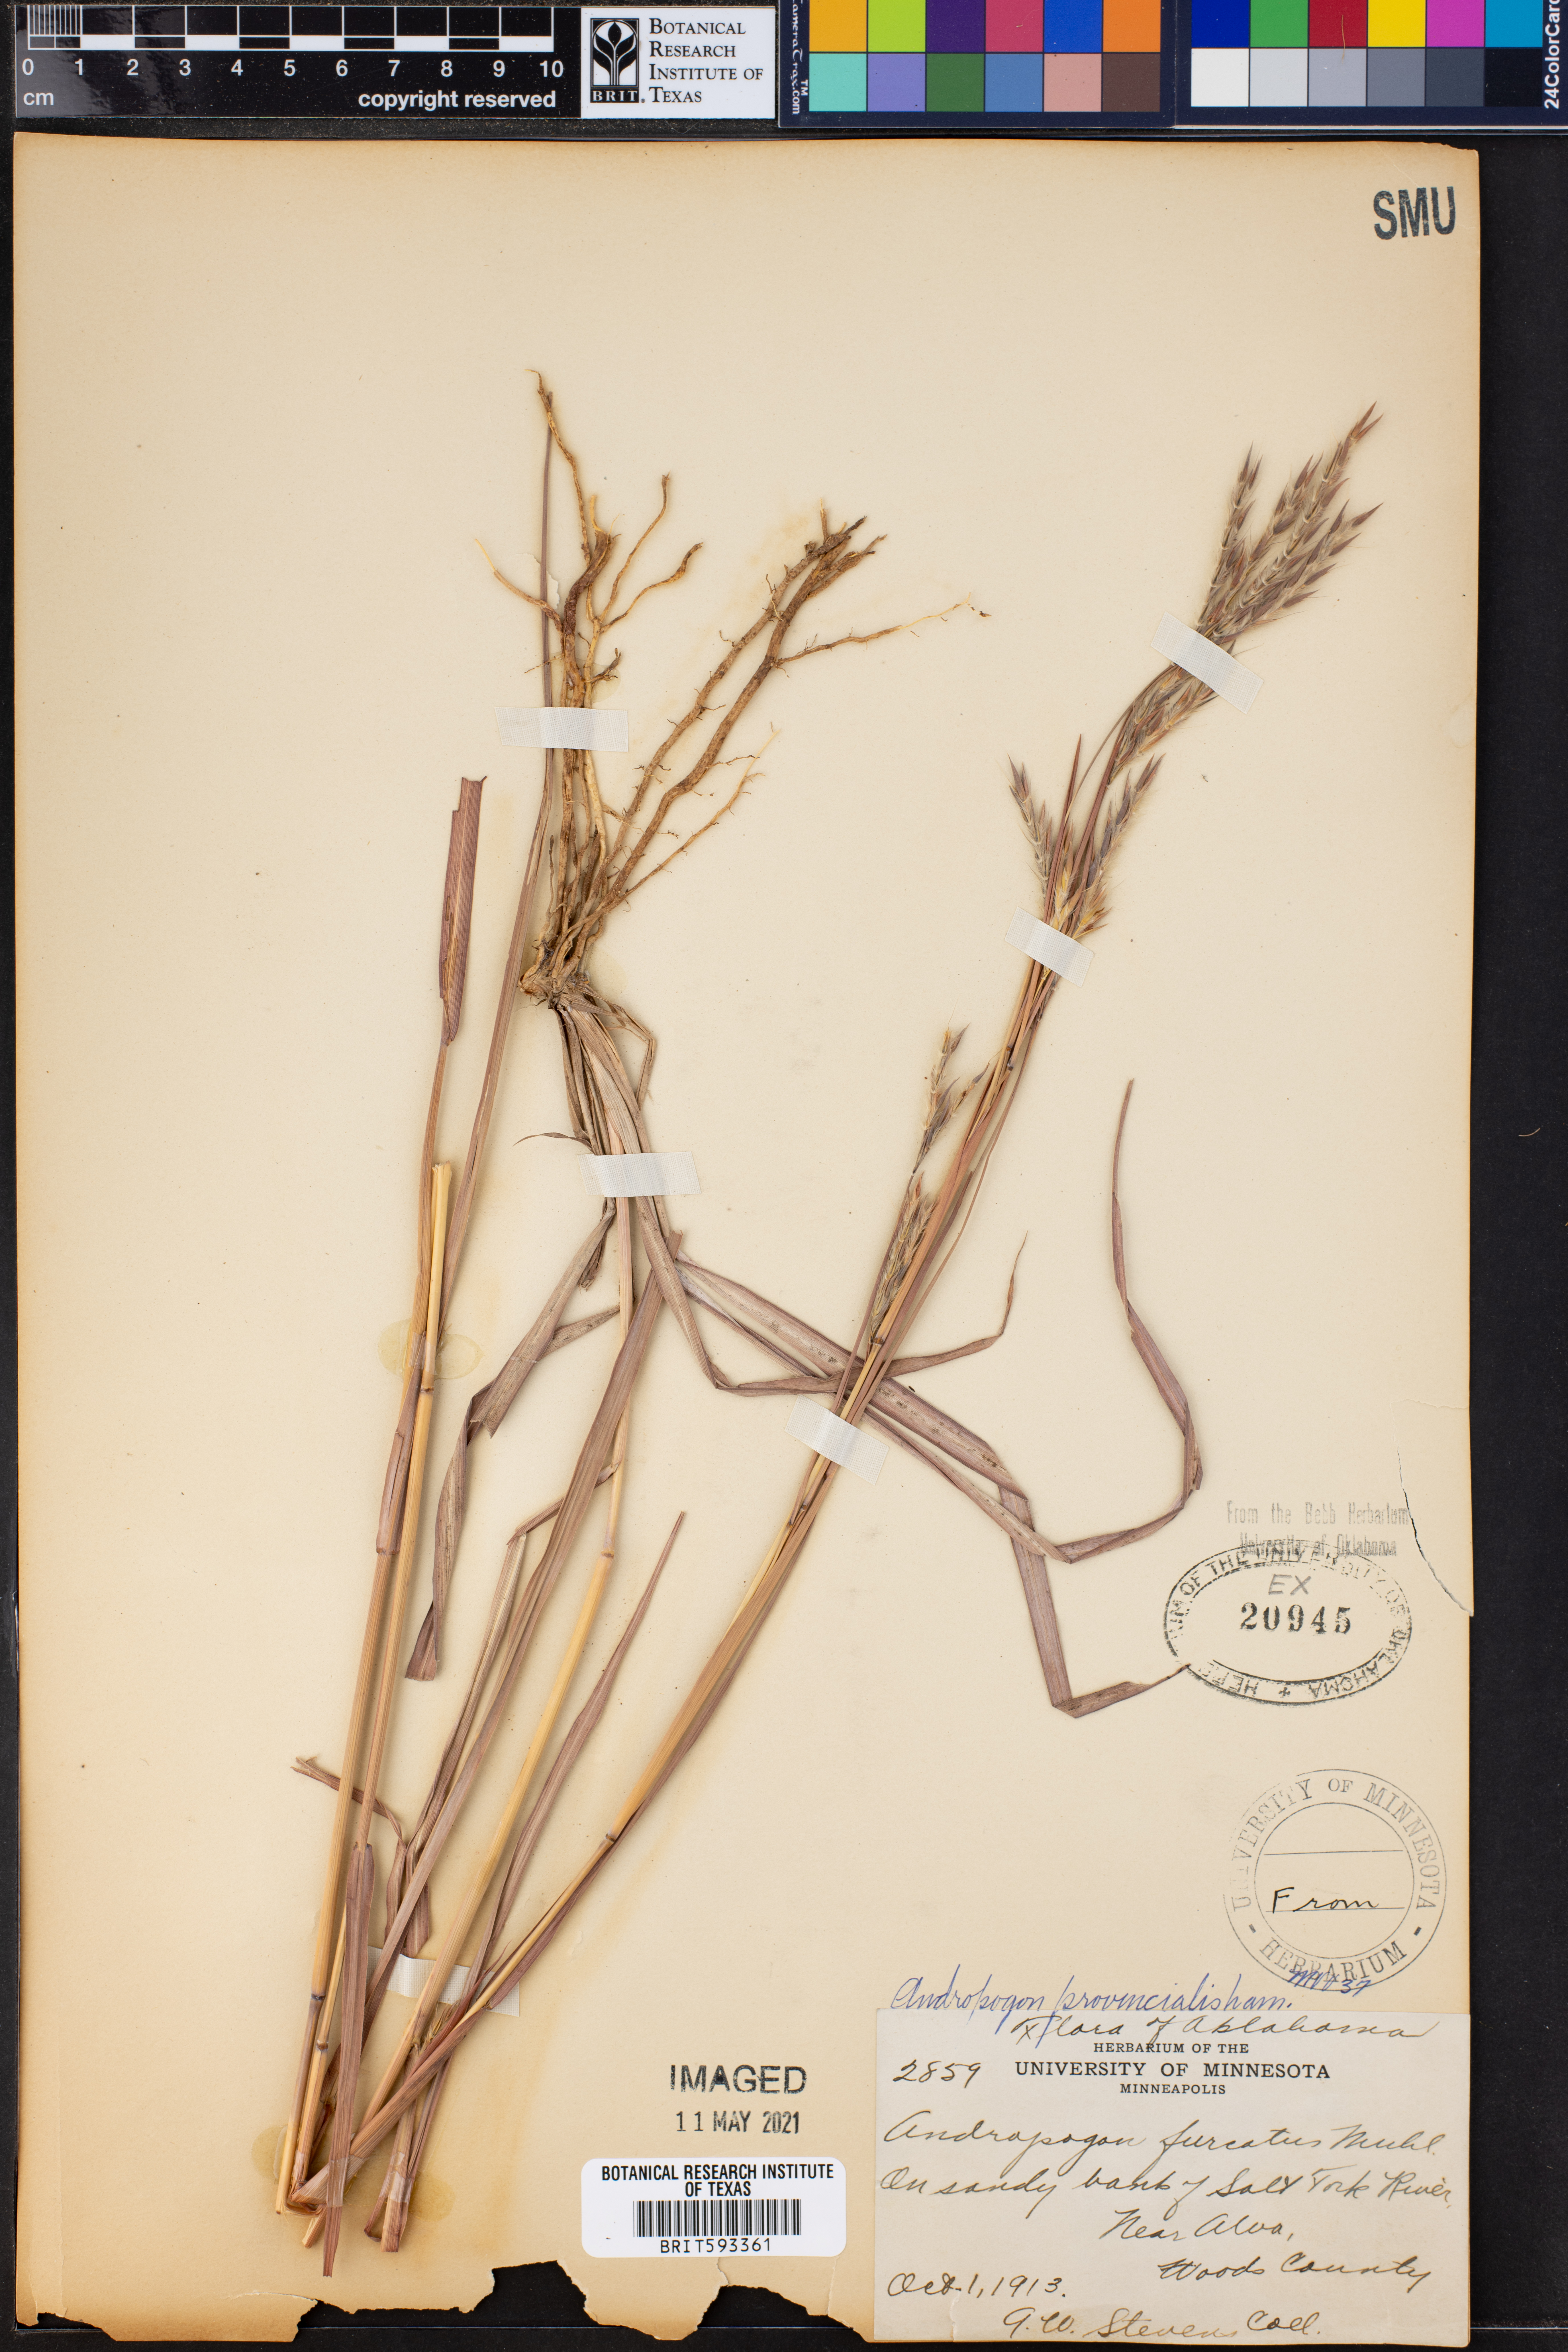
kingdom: Plantae
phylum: Tracheophyta
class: Liliopsida
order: Poales
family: Poaceae
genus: Andropogon
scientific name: Andropogon gerardi
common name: Big bluestem
